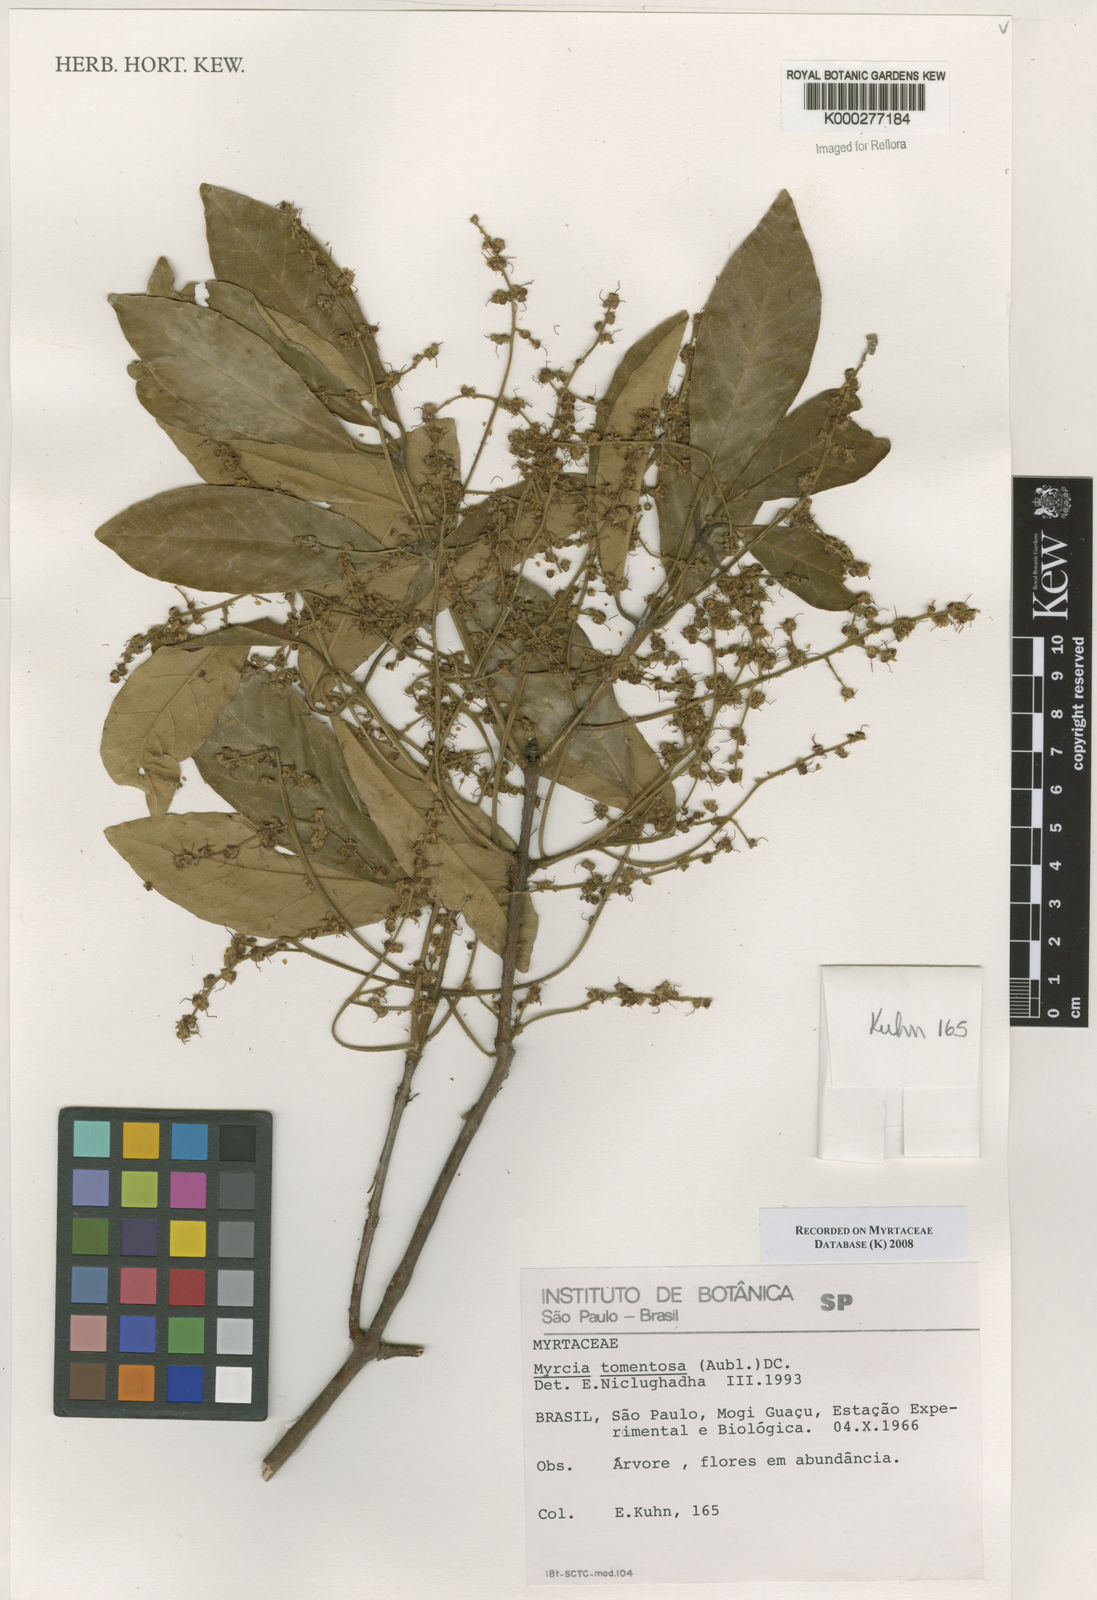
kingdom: Plantae
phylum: Tracheophyta
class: Magnoliopsida
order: Myrtales
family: Myrtaceae
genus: Myrcia
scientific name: Myrcia tomentosa
